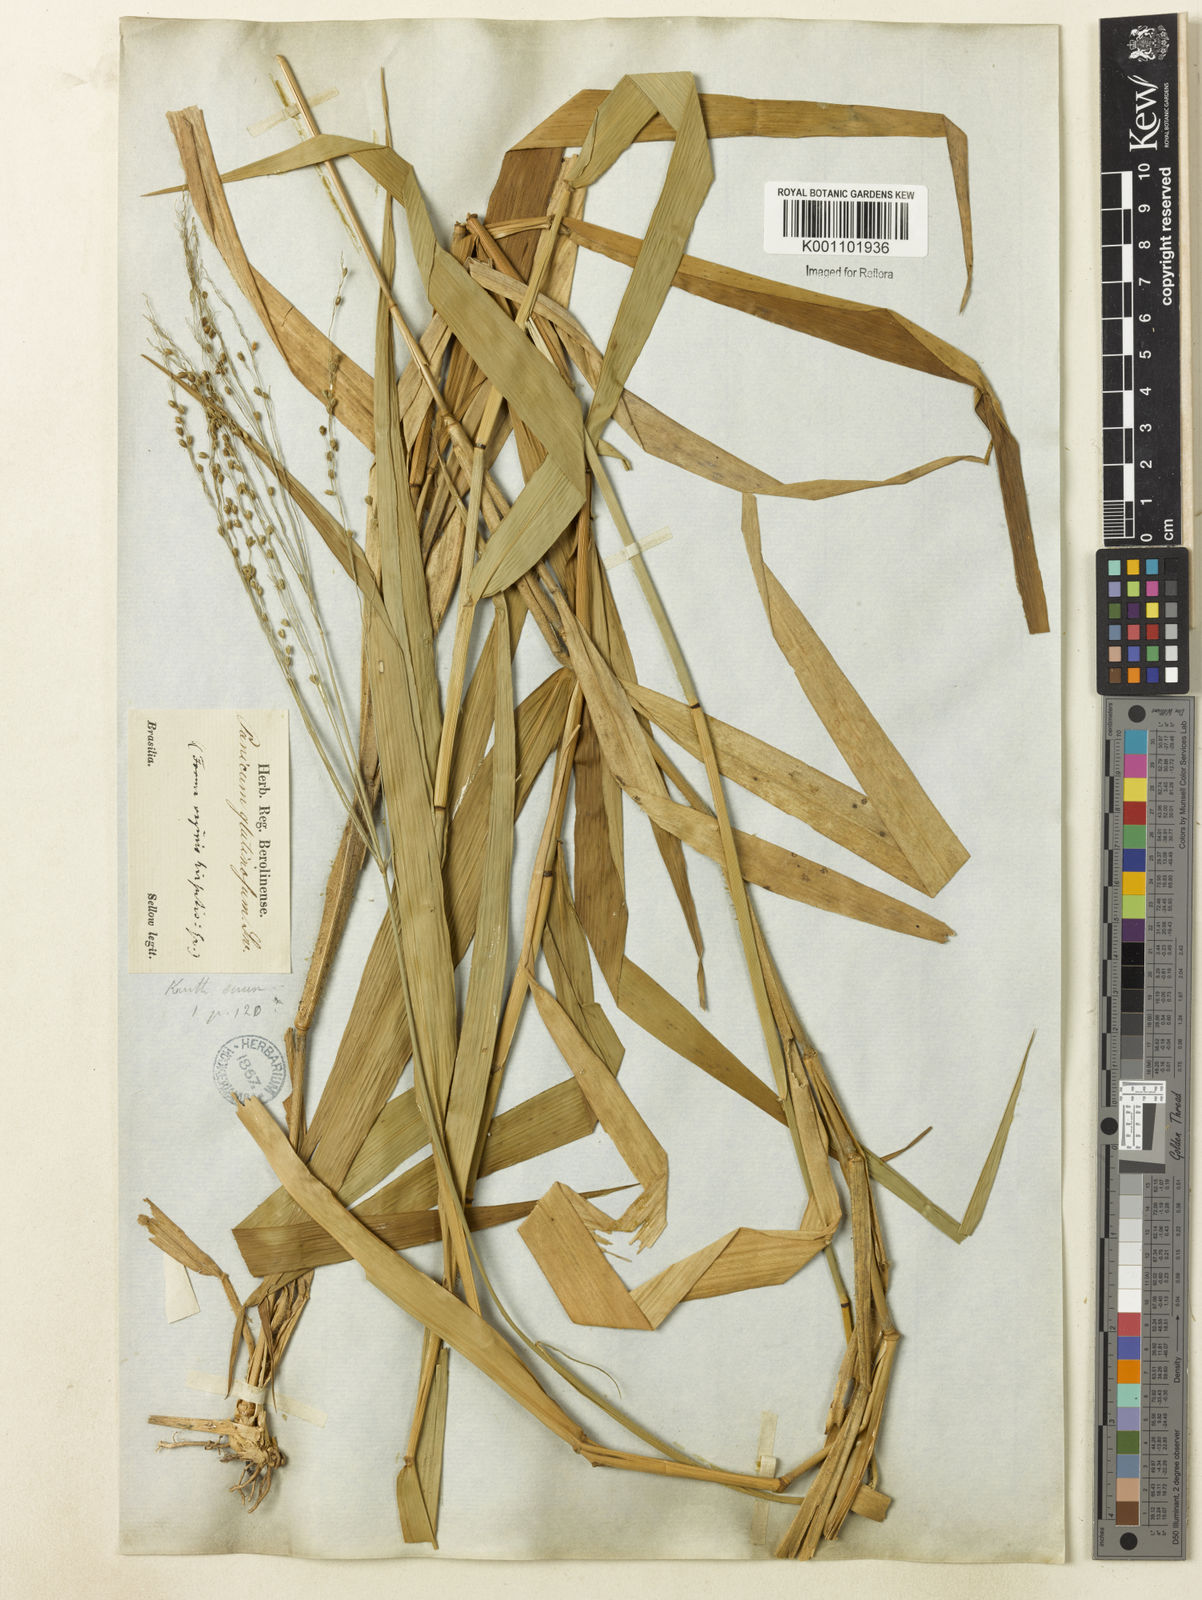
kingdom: Plantae
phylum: Tracheophyta
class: Liliopsida
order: Poales
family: Poaceae
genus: Homolepis
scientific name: Homolepis glutinosa
